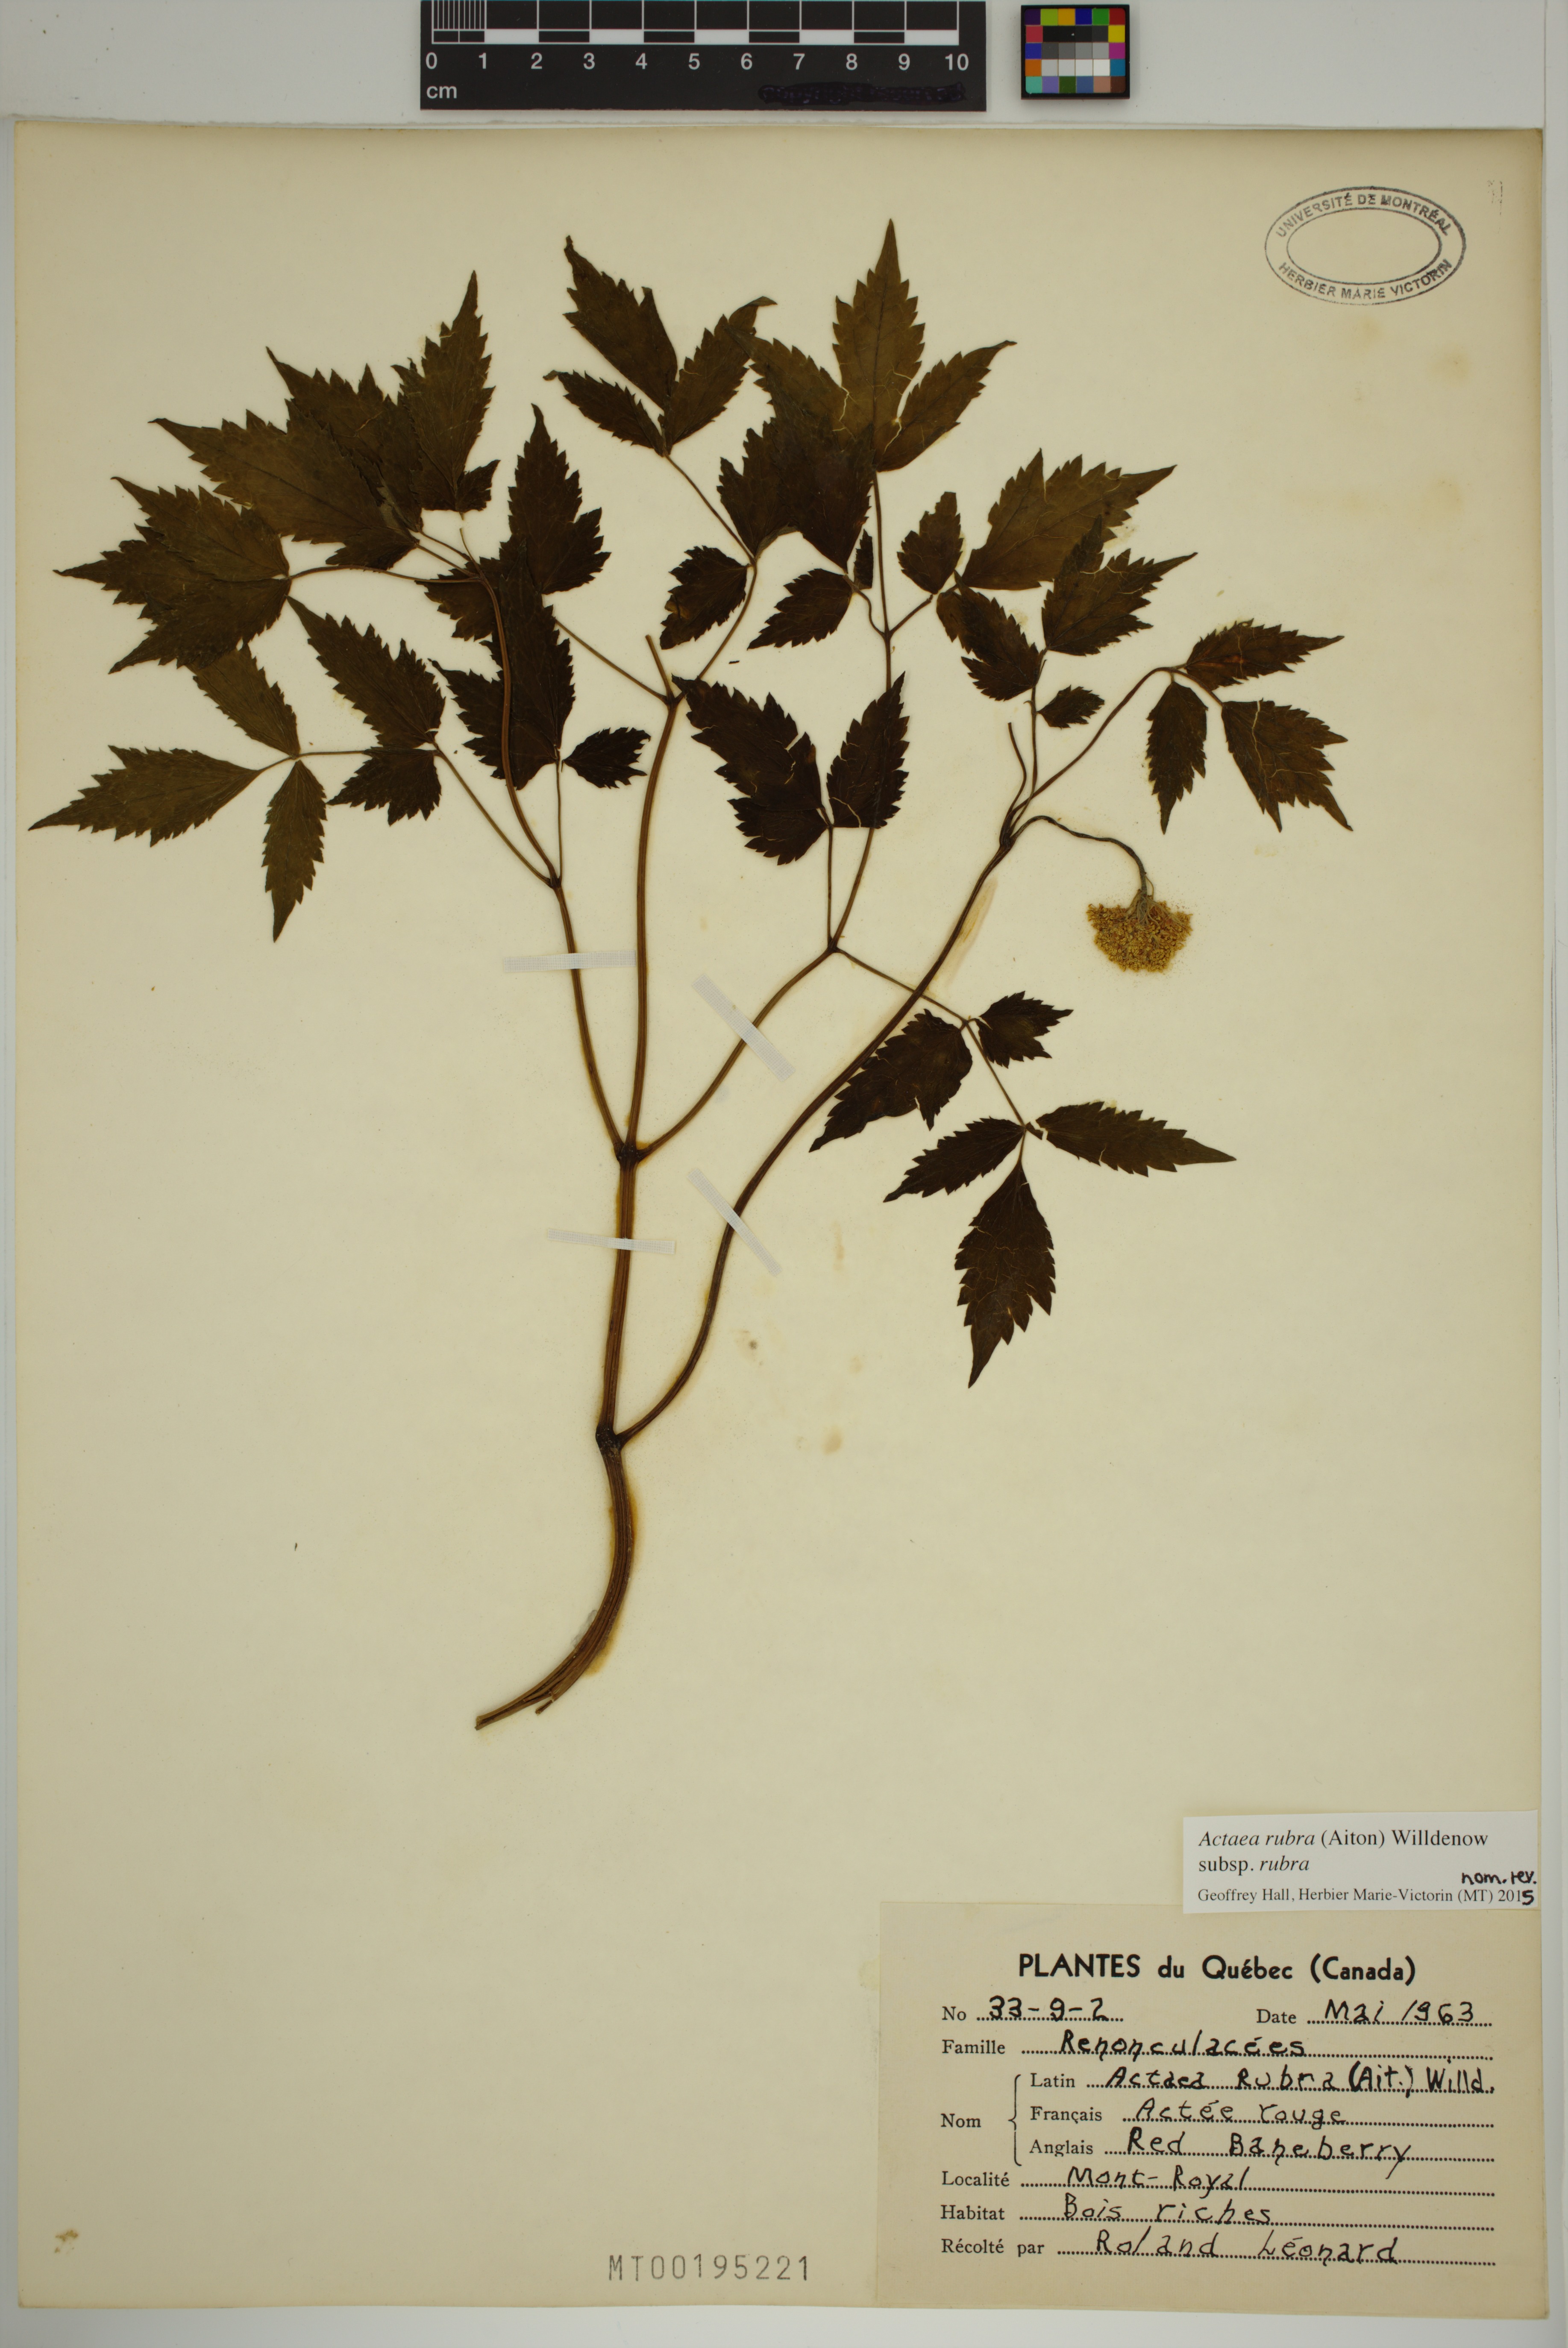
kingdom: Plantae
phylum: Tracheophyta
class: Magnoliopsida
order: Ranunculales
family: Ranunculaceae
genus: Actaea
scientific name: Actaea rubra
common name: Red baneberry
